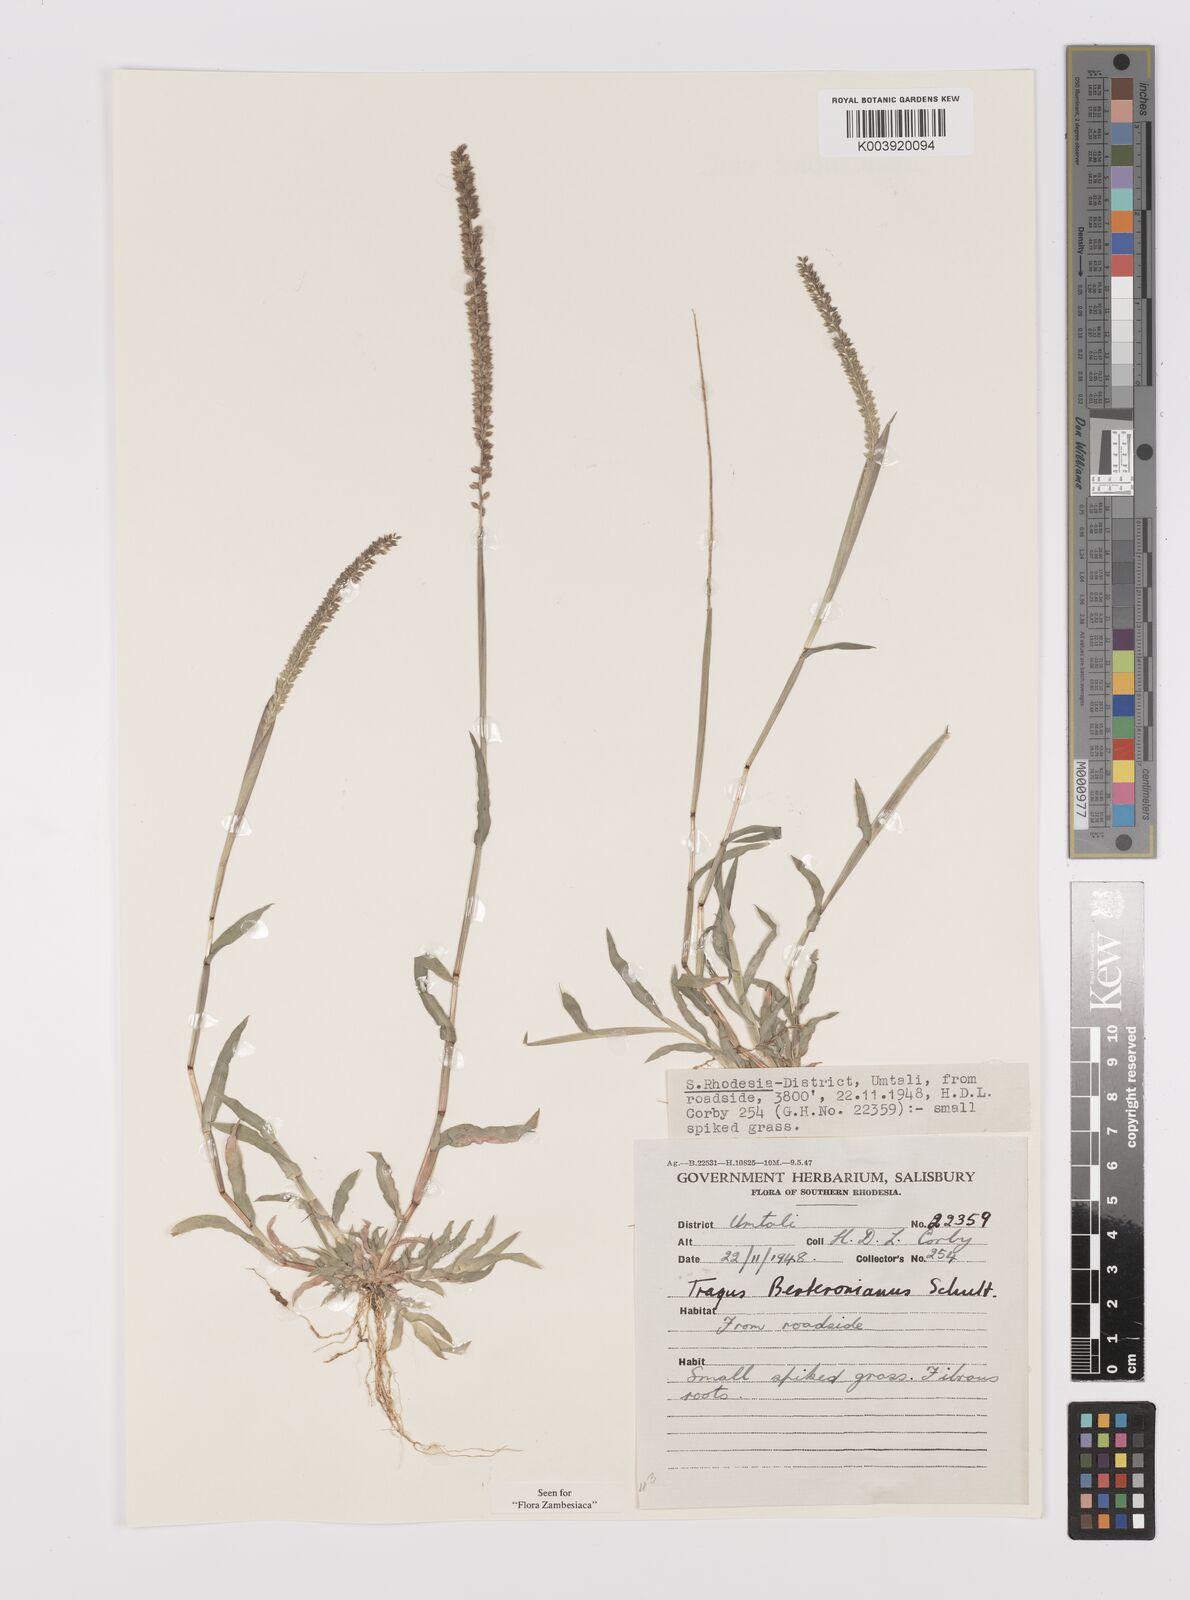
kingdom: Plantae
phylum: Tracheophyta
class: Liliopsida
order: Poales
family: Poaceae
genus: Tragus
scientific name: Tragus berteronianus
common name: African bur-grass
